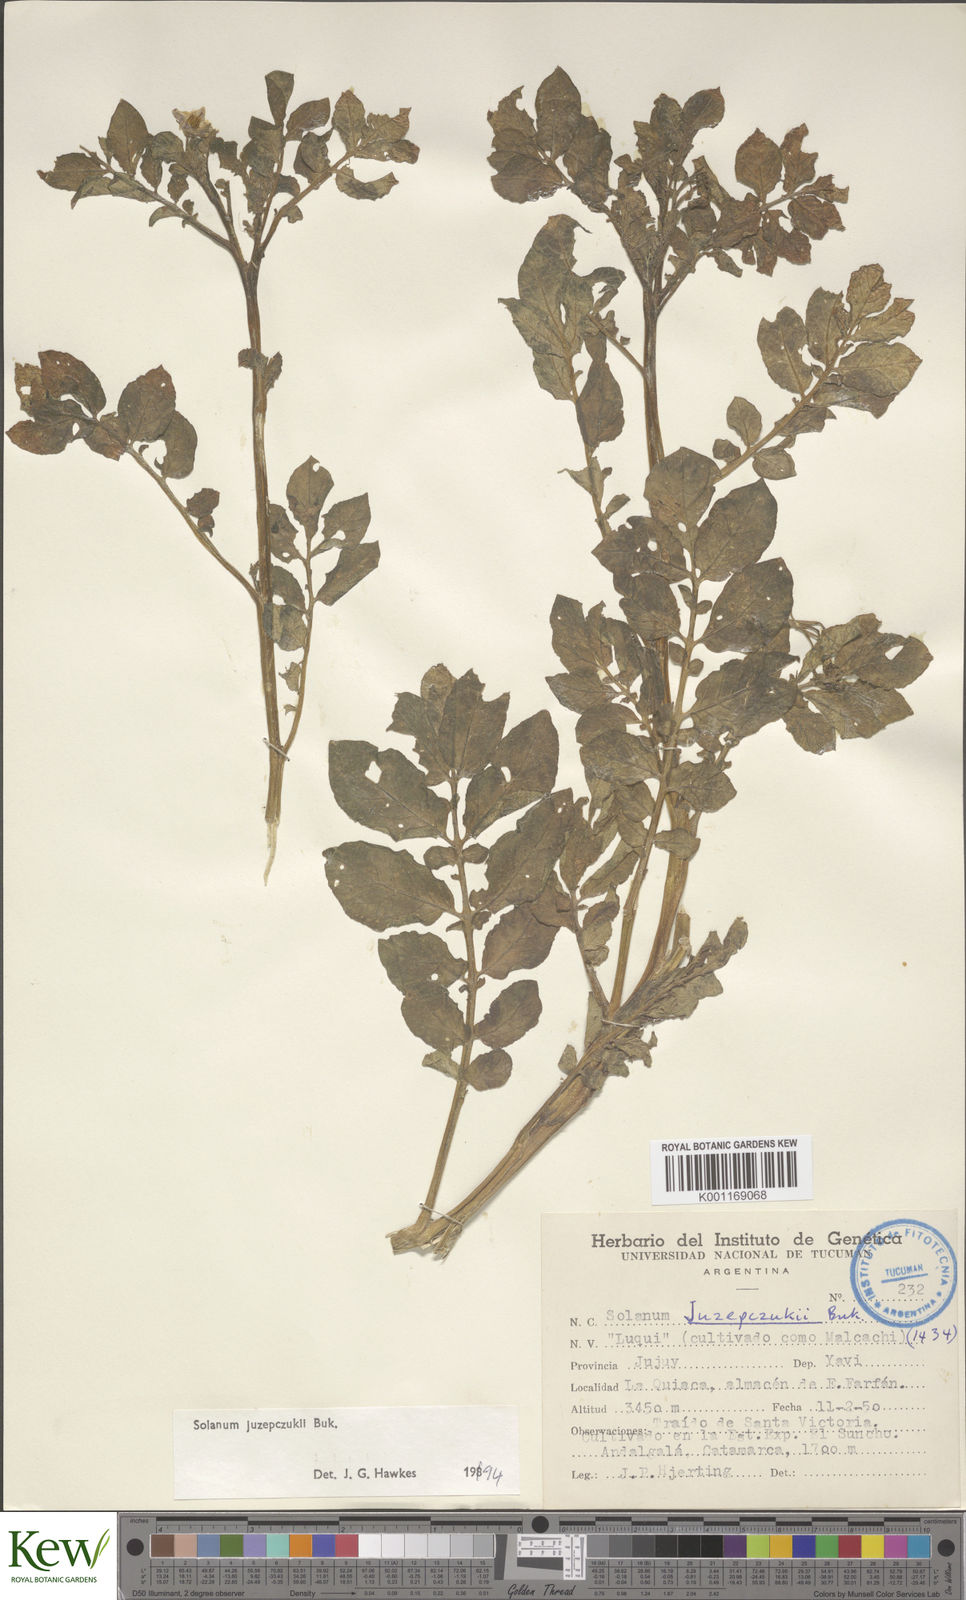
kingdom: Plantae
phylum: Tracheophyta
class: Magnoliopsida
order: Solanales
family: Solanaceae
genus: Solanum
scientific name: Solanum juzepczukii
